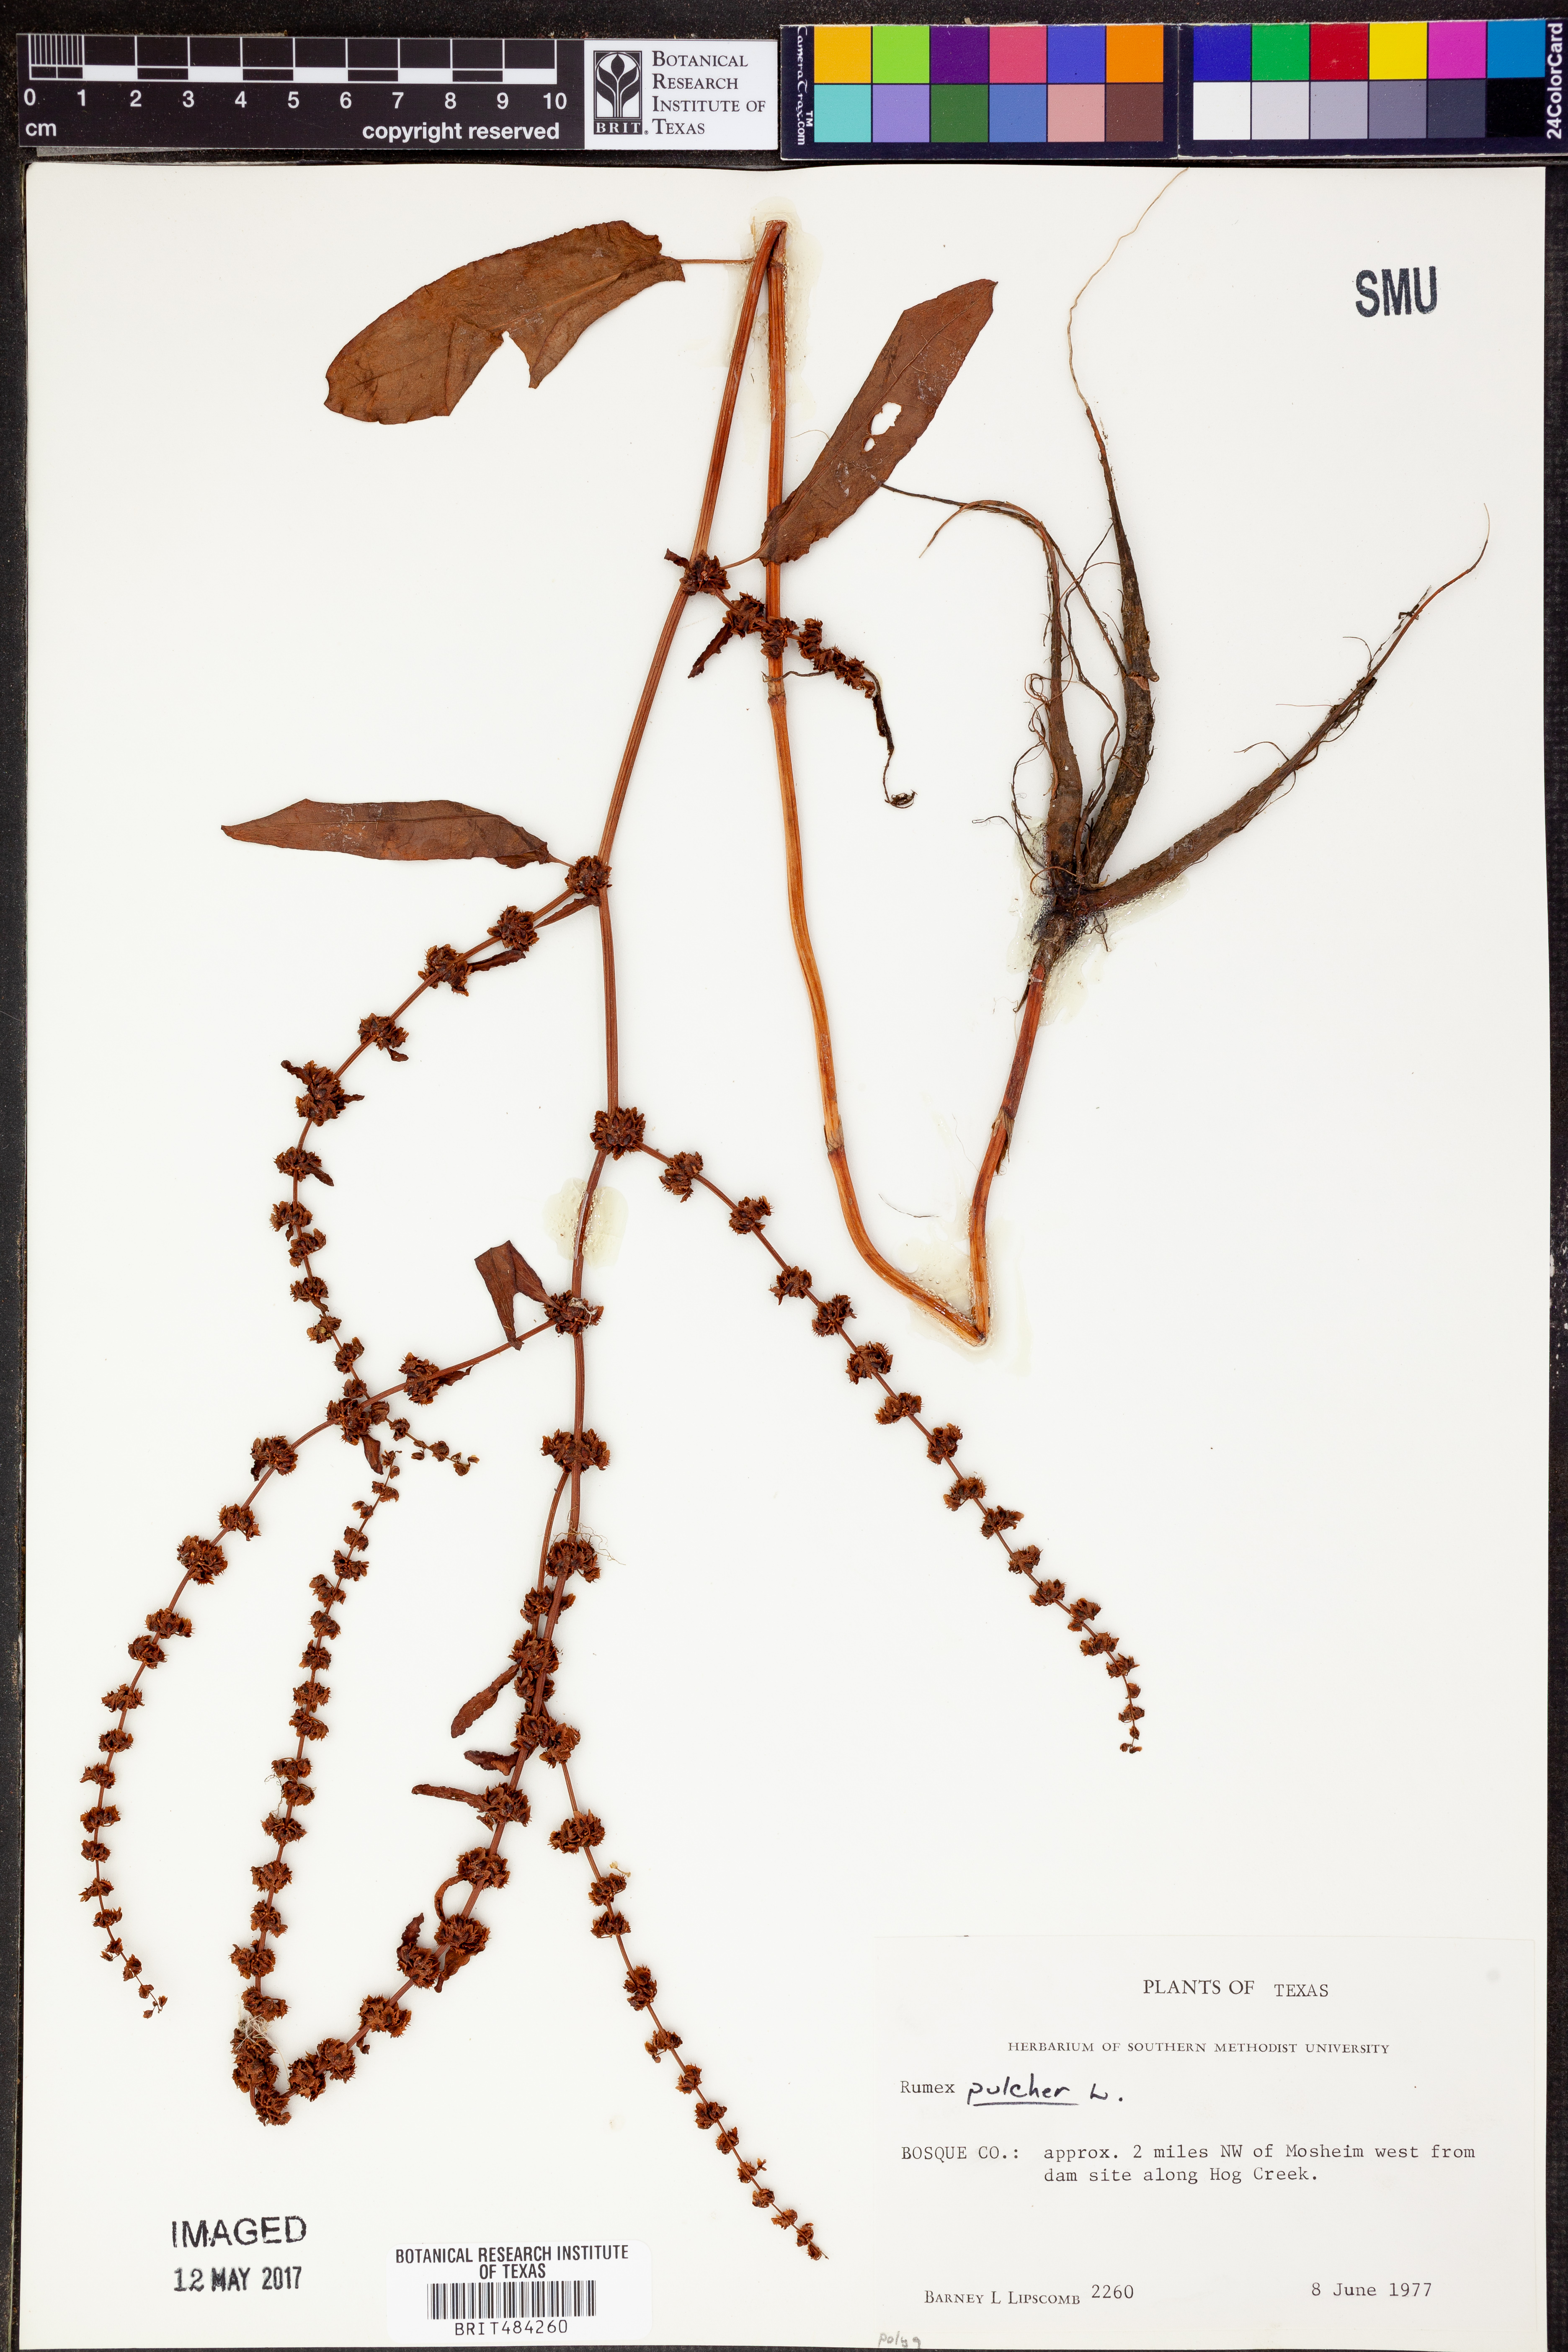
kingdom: Plantae
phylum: Tracheophyta
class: Magnoliopsida
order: Caryophyllales
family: Polygonaceae
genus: Rumex
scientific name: Rumex pulcher
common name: Fiddle dock
